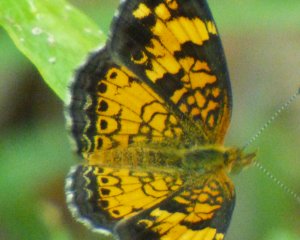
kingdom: Animalia
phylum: Arthropoda
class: Insecta
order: Lepidoptera
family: Nymphalidae
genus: Phyciodes
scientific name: Phyciodes tharos
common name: Pearl Crescent
